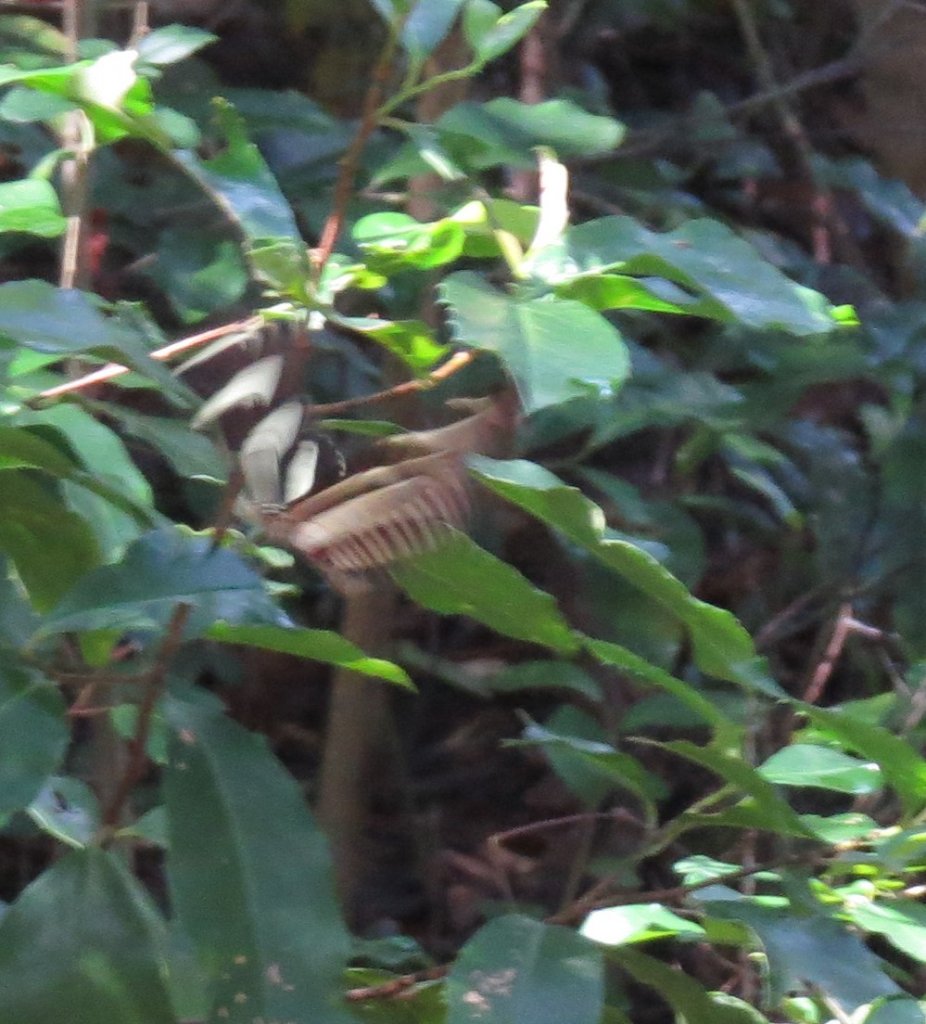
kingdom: Animalia
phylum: Arthropoda
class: Insecta
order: Lepidoptera
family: Nymphalidae
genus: Heliconius
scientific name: Heliconius charithonia
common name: Zebra Longwing
